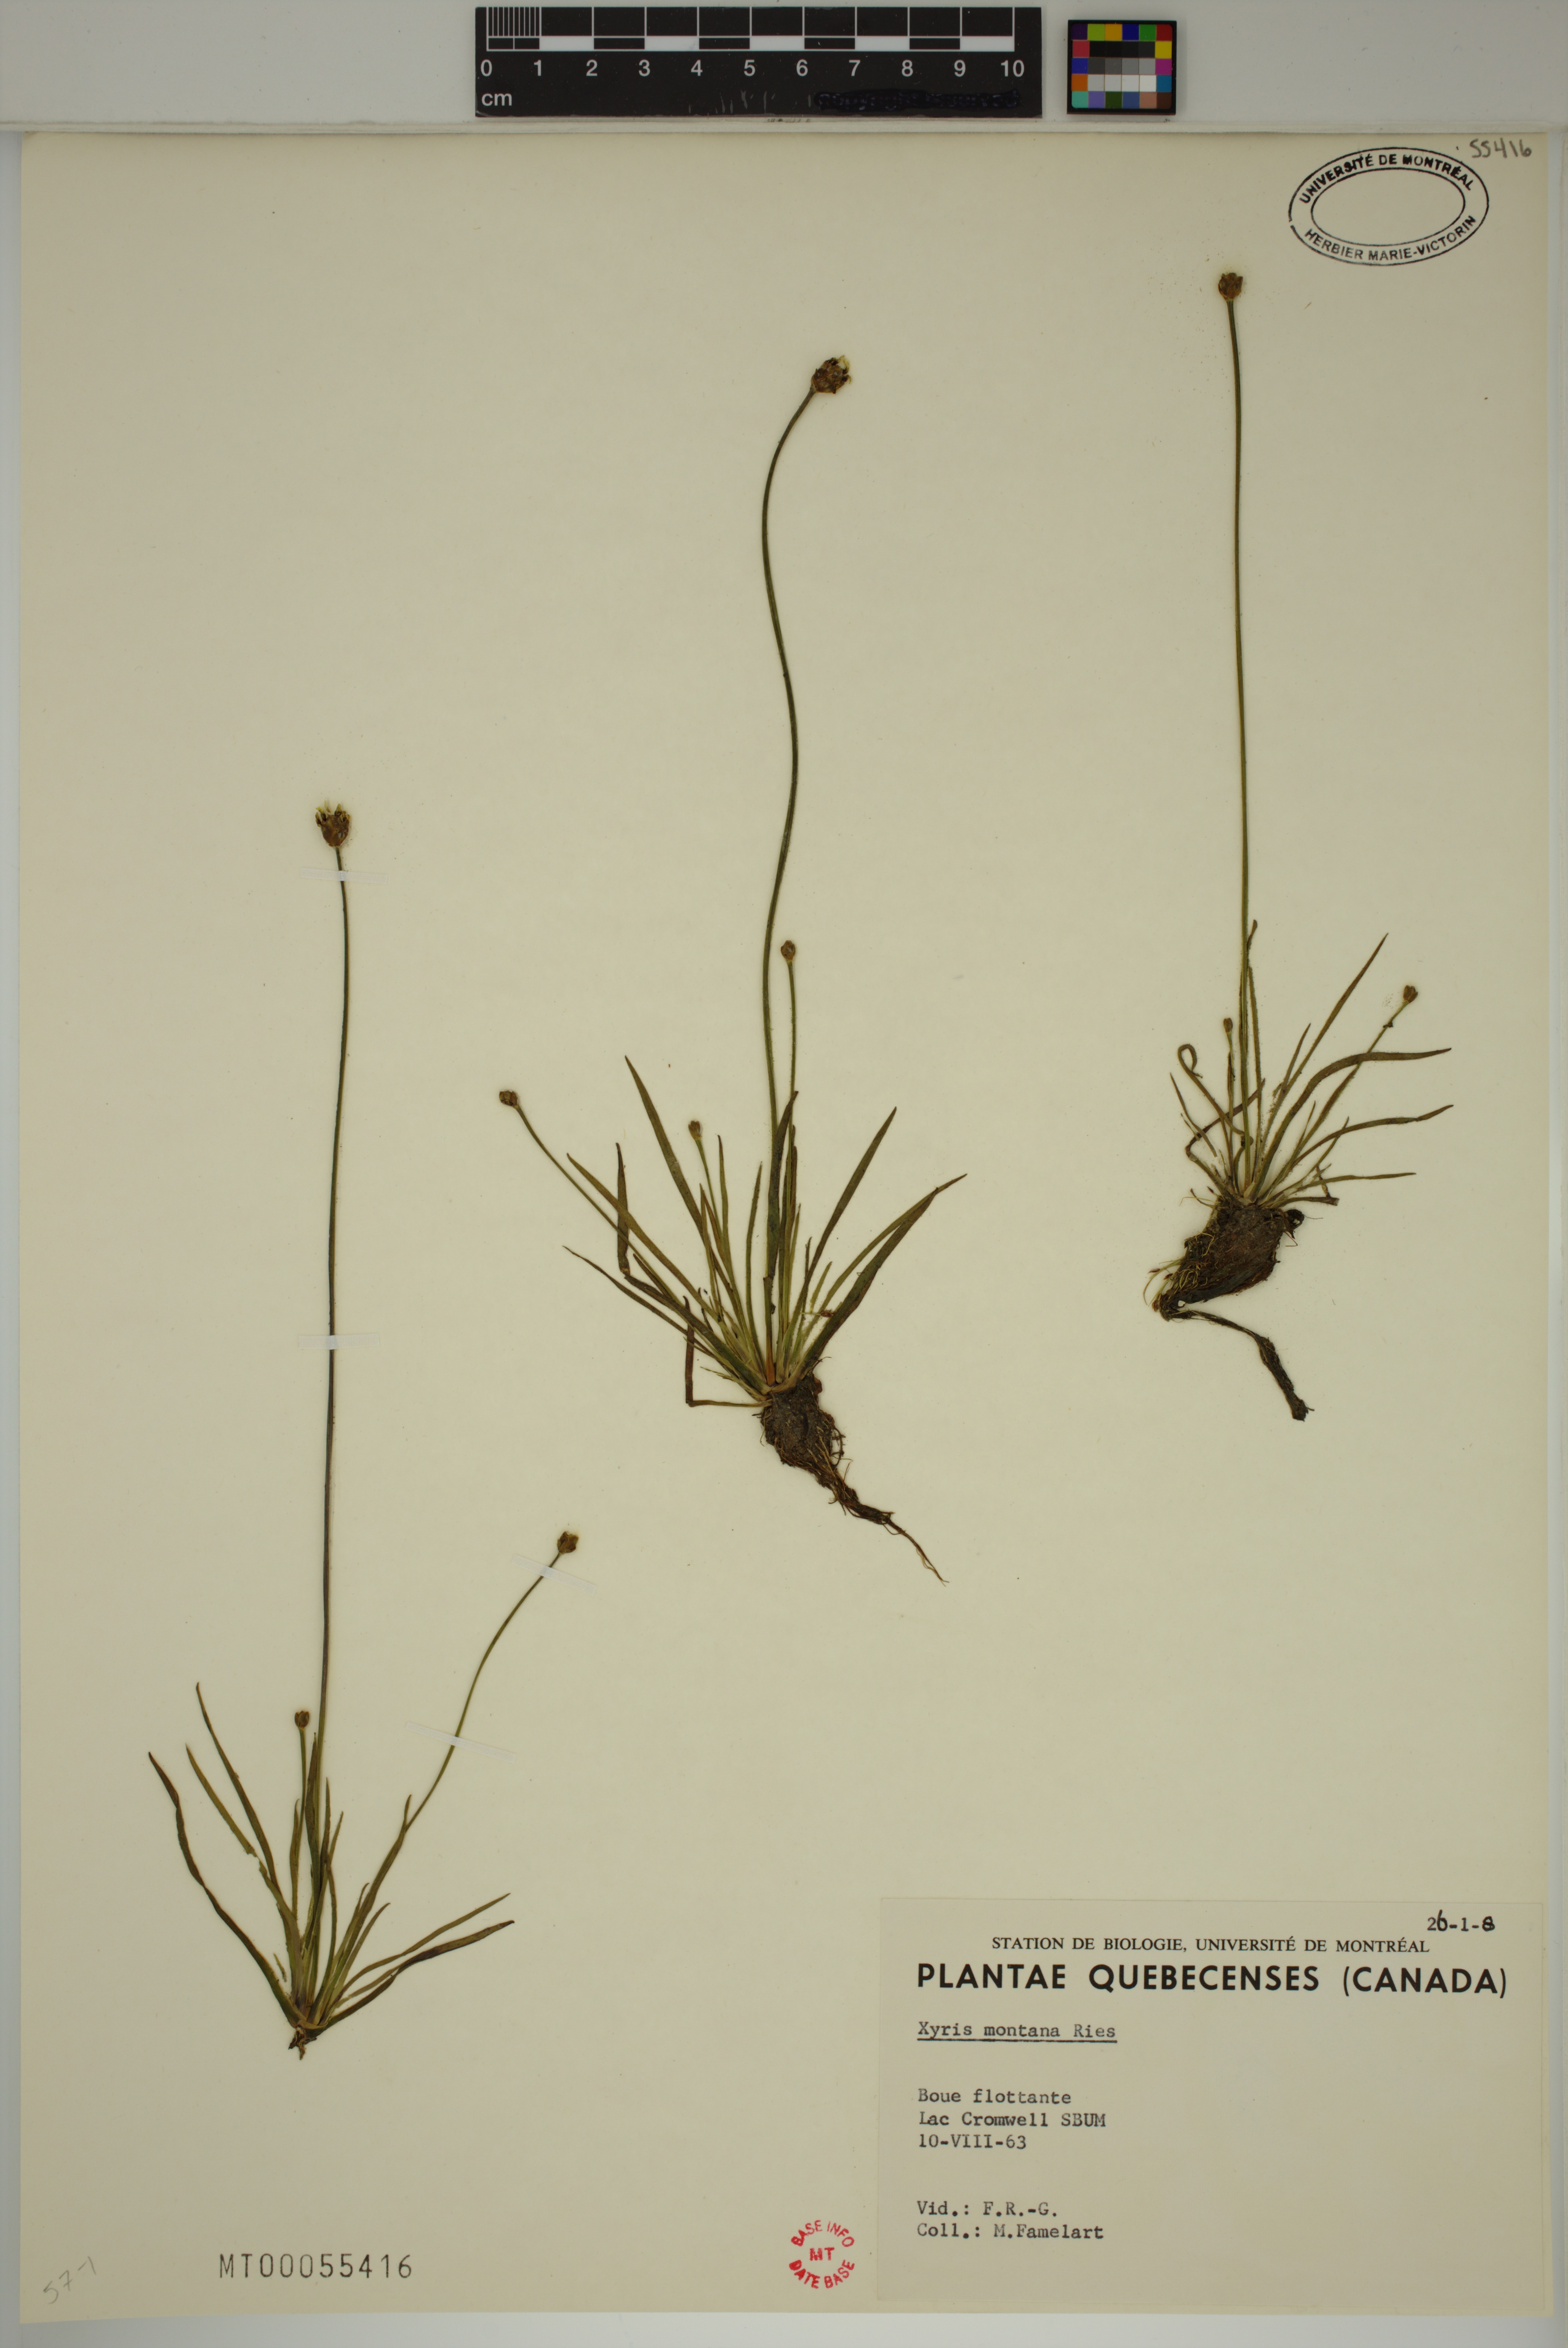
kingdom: Plantae
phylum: Tracheophyta
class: Liliopsida
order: Poales
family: Xyridaceae
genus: Xyris
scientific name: Xyris montana
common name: Northern yellow-eyed-grass
